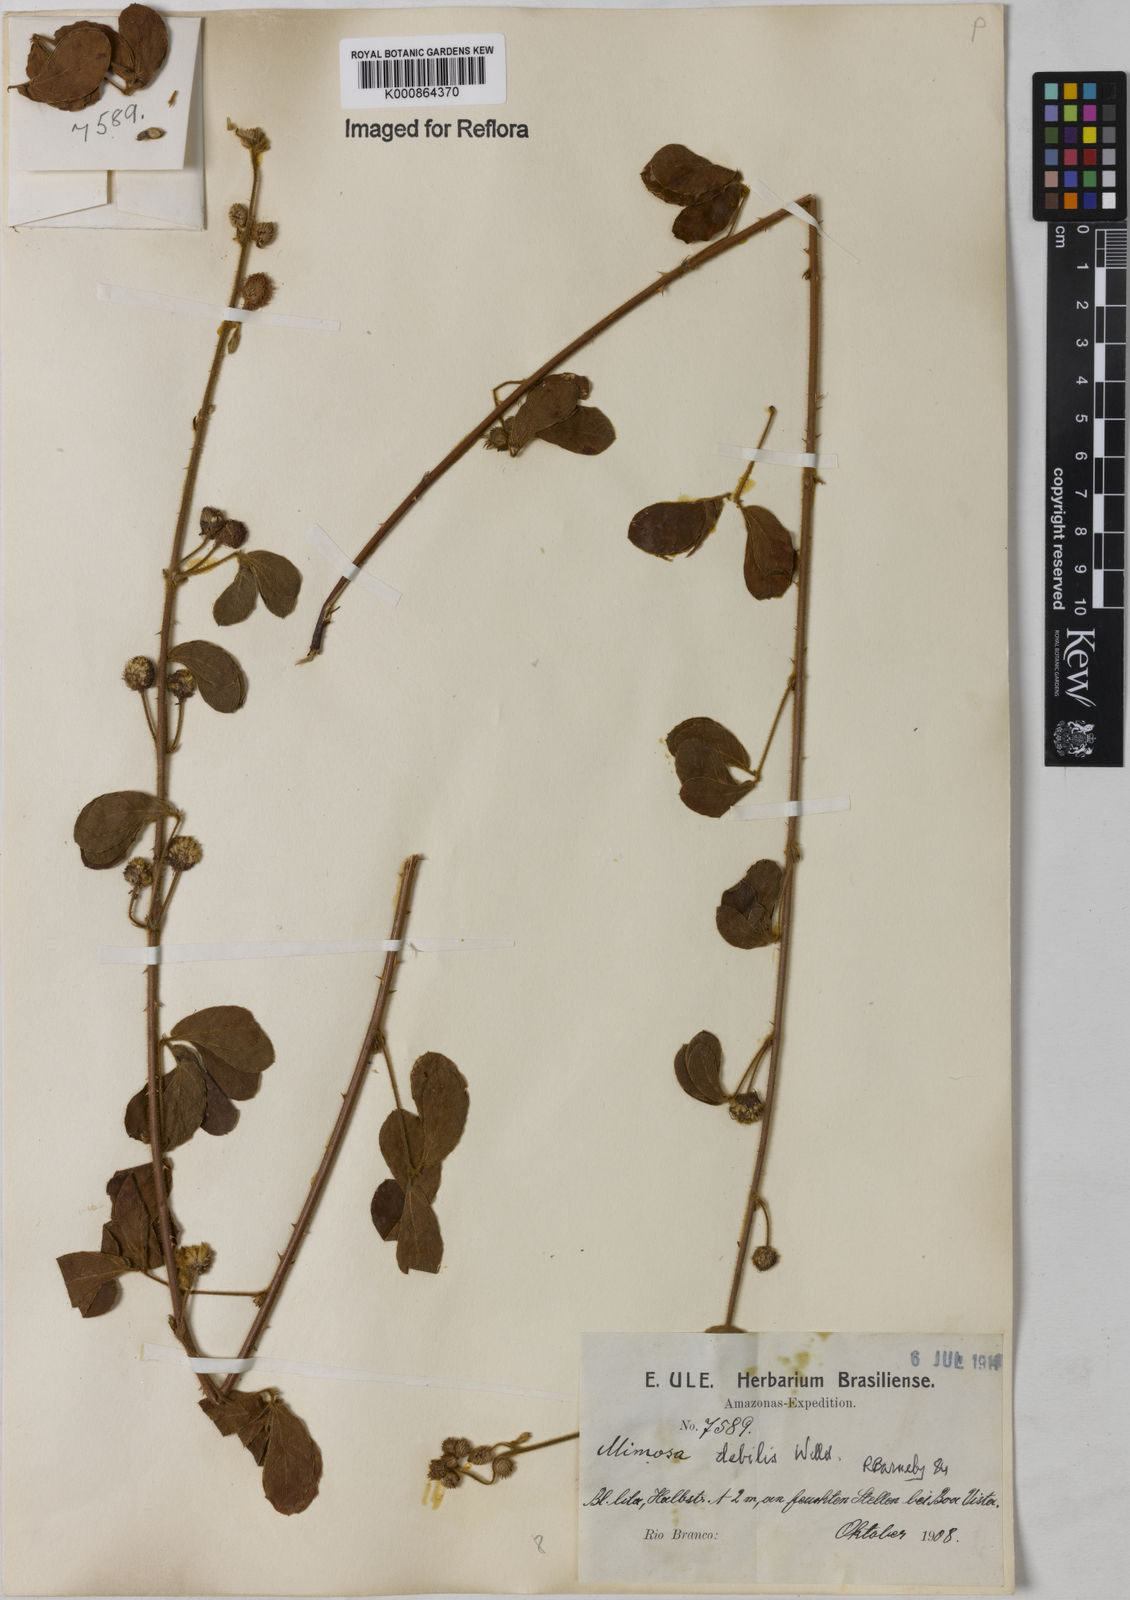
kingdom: Plantae
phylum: Tracheophyta
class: Magnoliopsida
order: Fabales
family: Fabaceae
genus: Mimosa
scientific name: Mimosa
